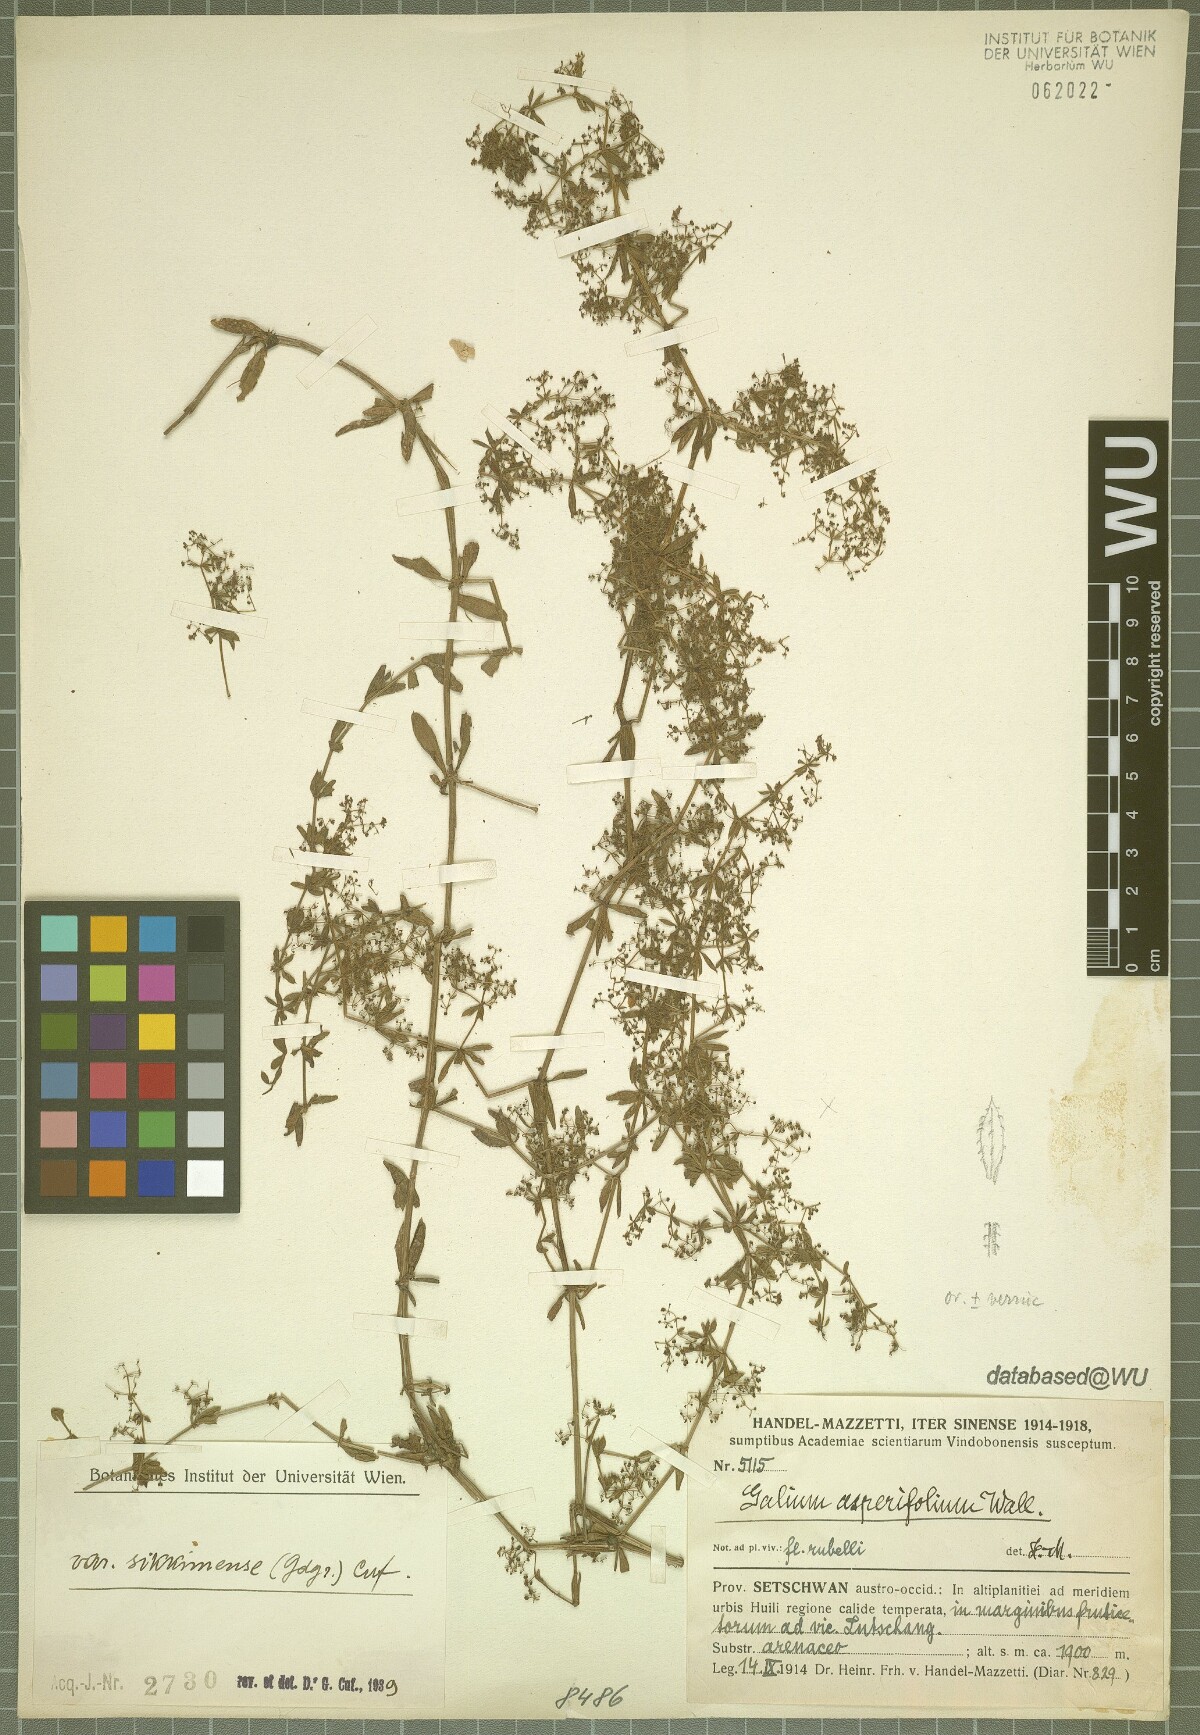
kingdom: Plantae
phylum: Tracheophyta
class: Magnoliopsida
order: Gentianales
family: Rubiaceae
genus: Galium
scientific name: Galium asperifolium
